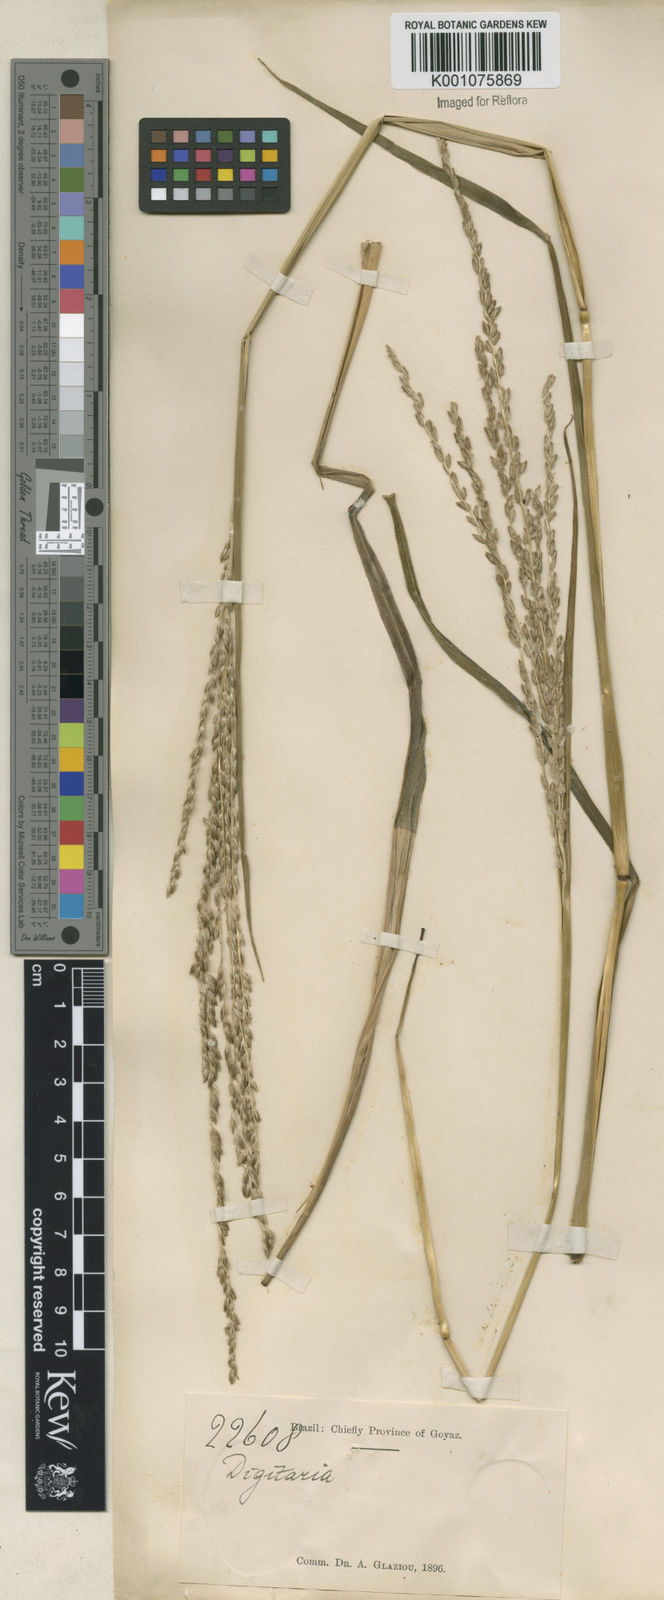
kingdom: Plantae
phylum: Tracheophyta
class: Liliopsida
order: Poales
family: Poaceae
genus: Digitaria
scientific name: Digitaria neesiana
